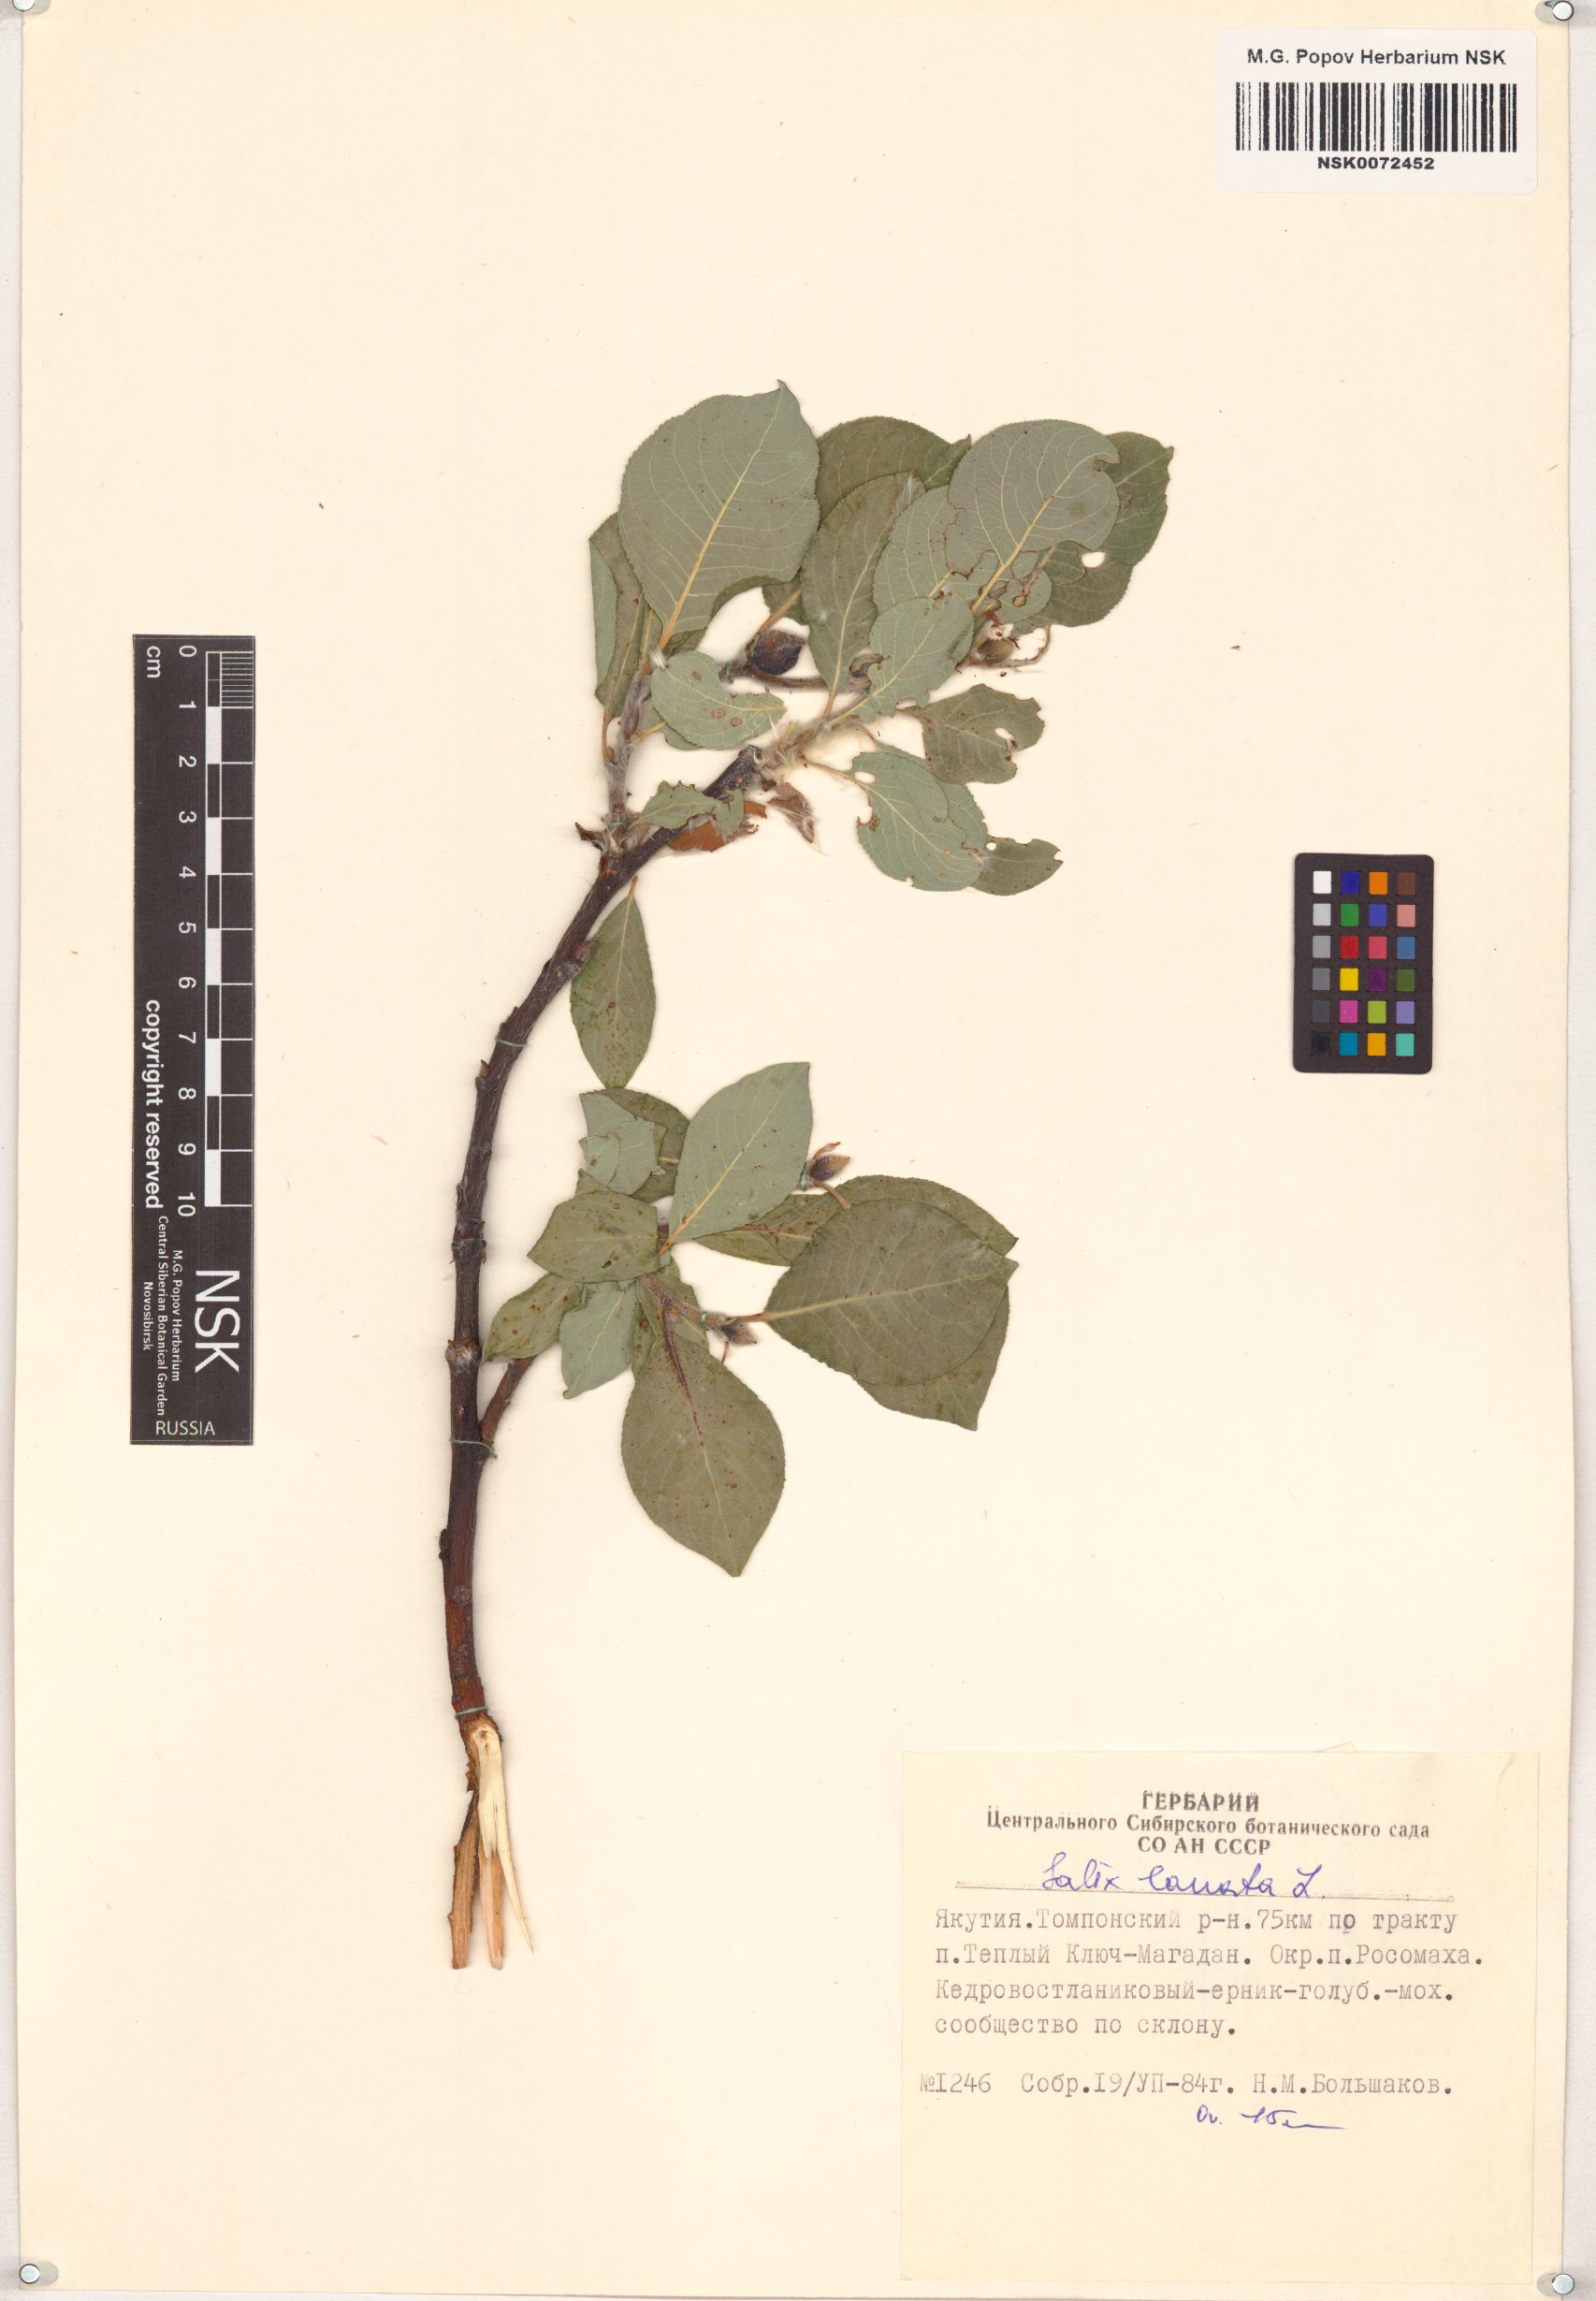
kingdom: Plantae
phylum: Tracheophyta
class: Magnoliopsida
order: Malpighiales
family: Salicaceae
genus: Salix
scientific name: Salix lanata
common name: Woolly willow
